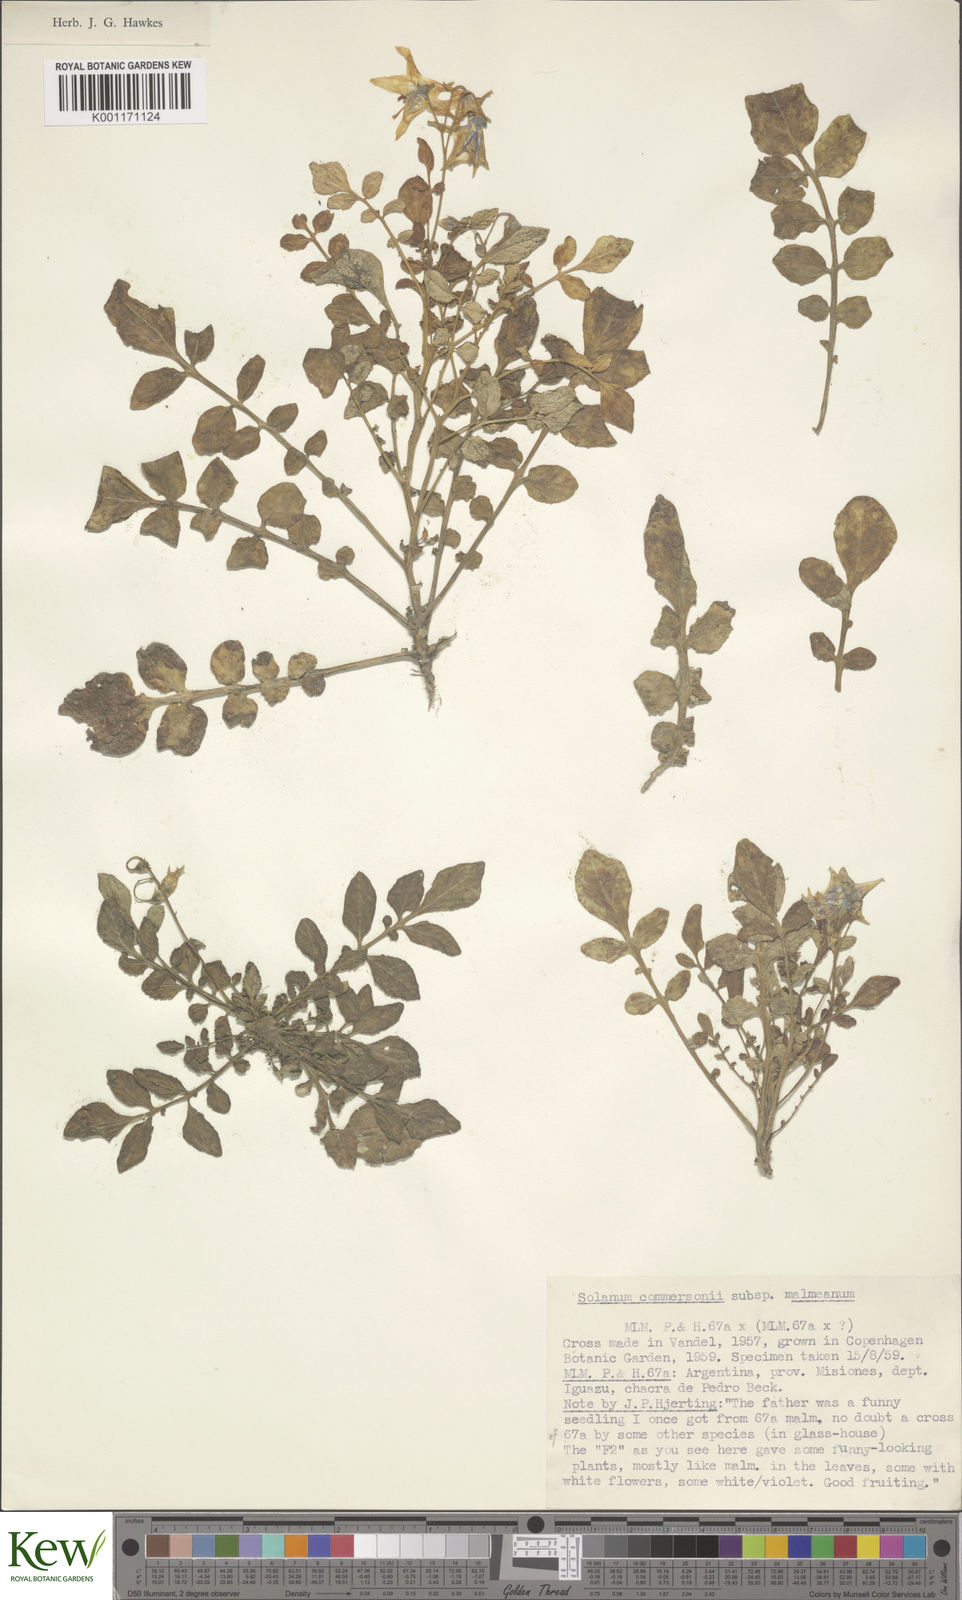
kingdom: Plantae
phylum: Tracheophyta
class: Magnoliopsida
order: Solanales
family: Solanaceae
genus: Solanum
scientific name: Solanum malmeanum
